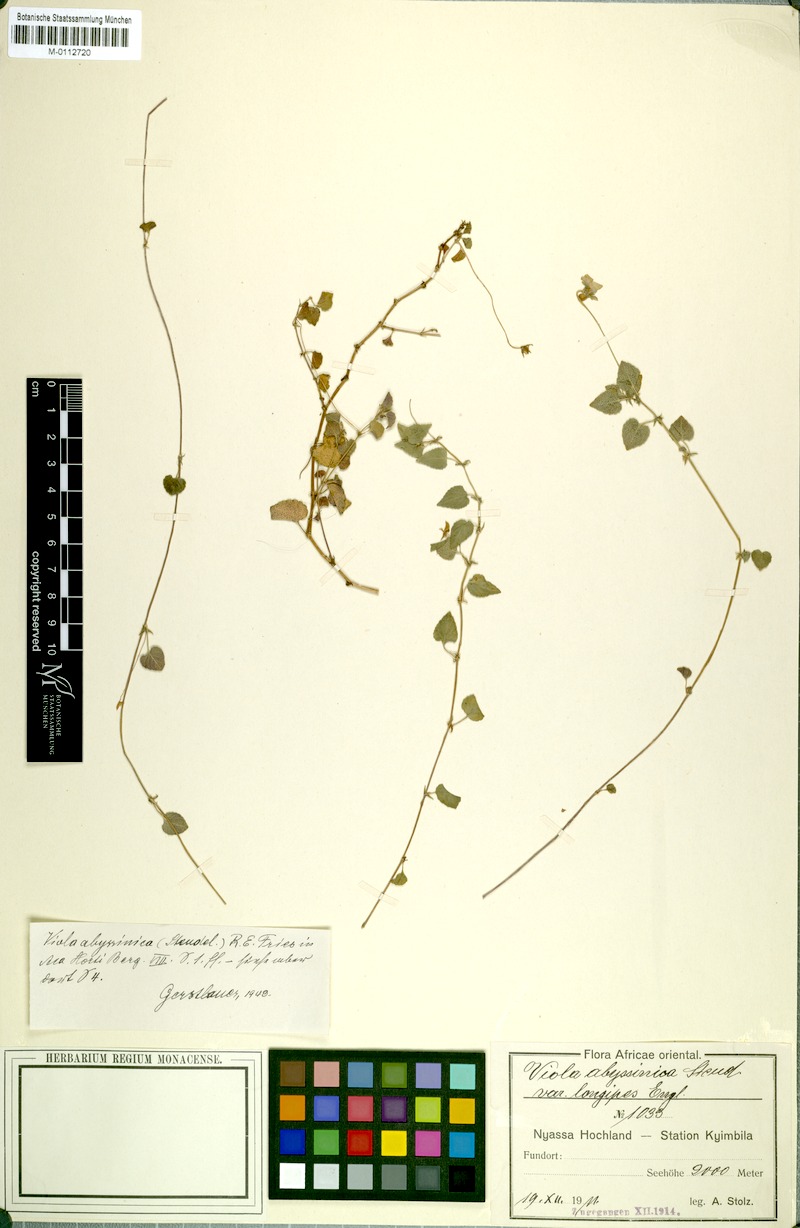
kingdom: Plantae
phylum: Tracheophyta
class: Magnoliopsida
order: Malpighiales
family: Violaceae
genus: Viola
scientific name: Viola abyssinica
